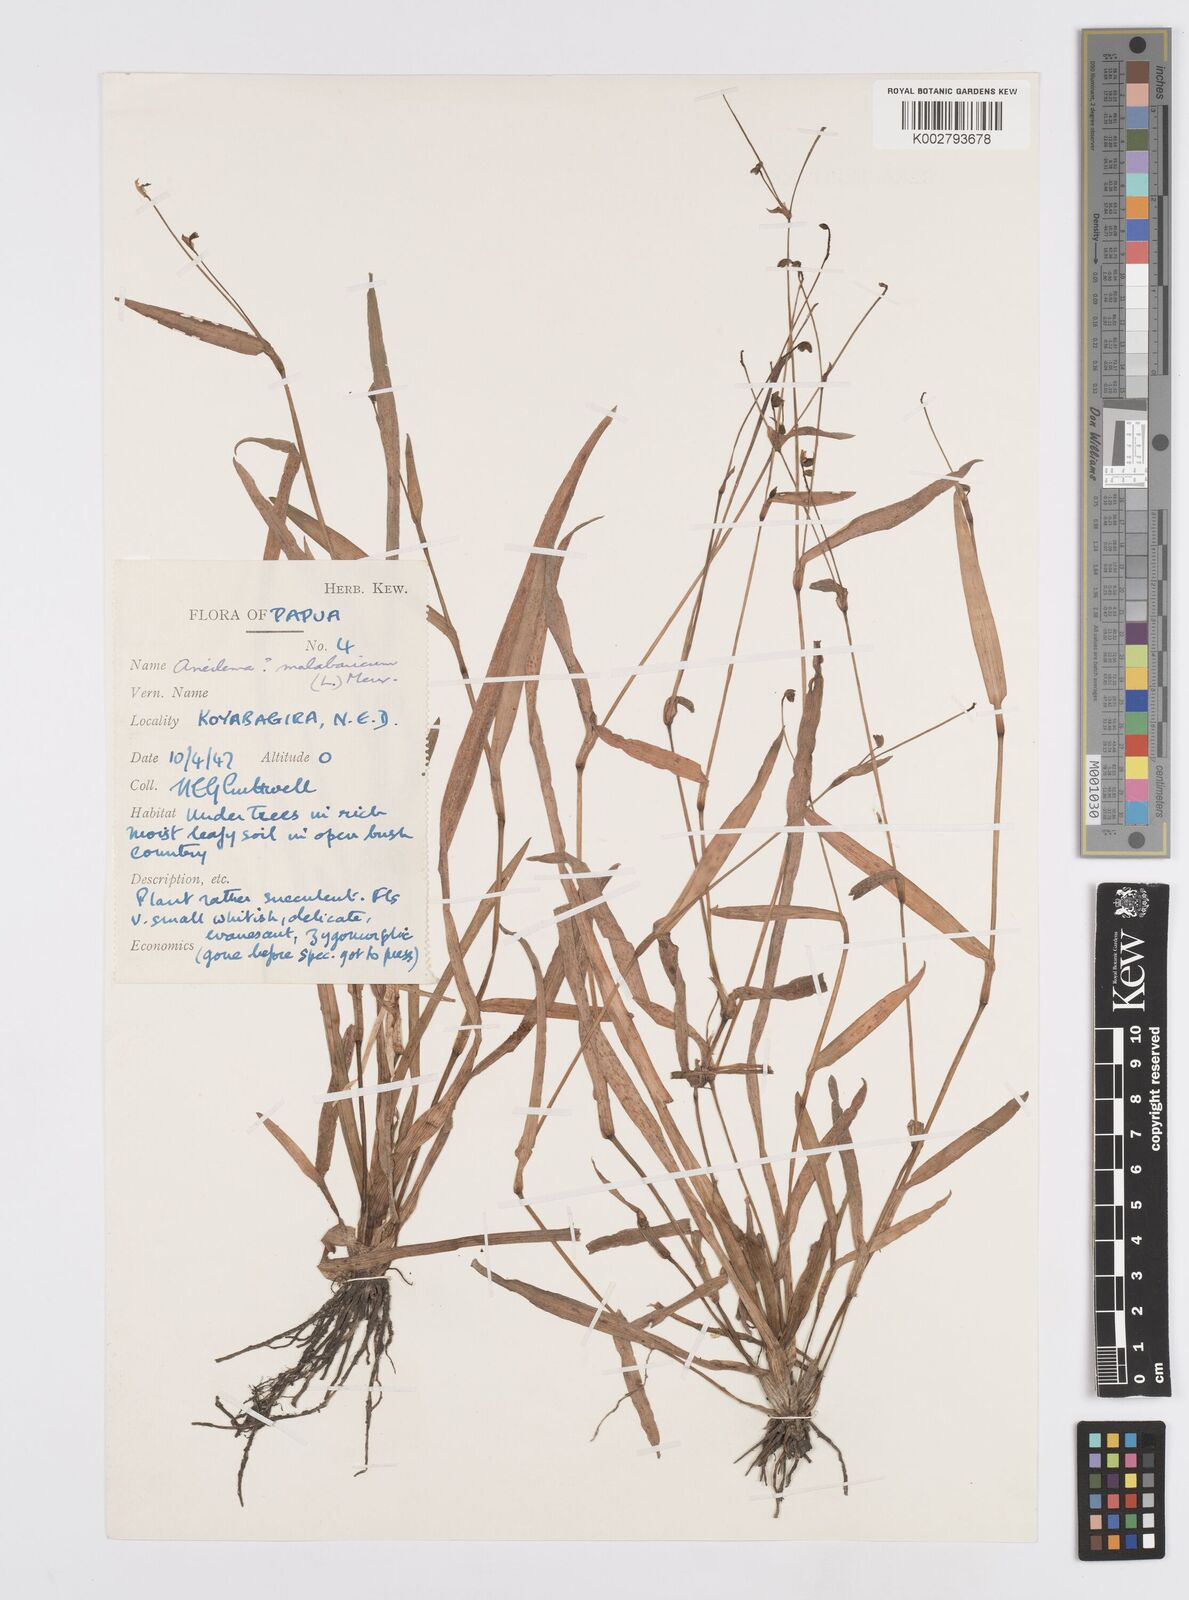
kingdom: Plantae
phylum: Tracheophyta
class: Liliopsida
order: Commelinales
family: Commelinaceae
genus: Murdannia
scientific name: Murdannia nudiflora
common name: Nakedstem dewflower
